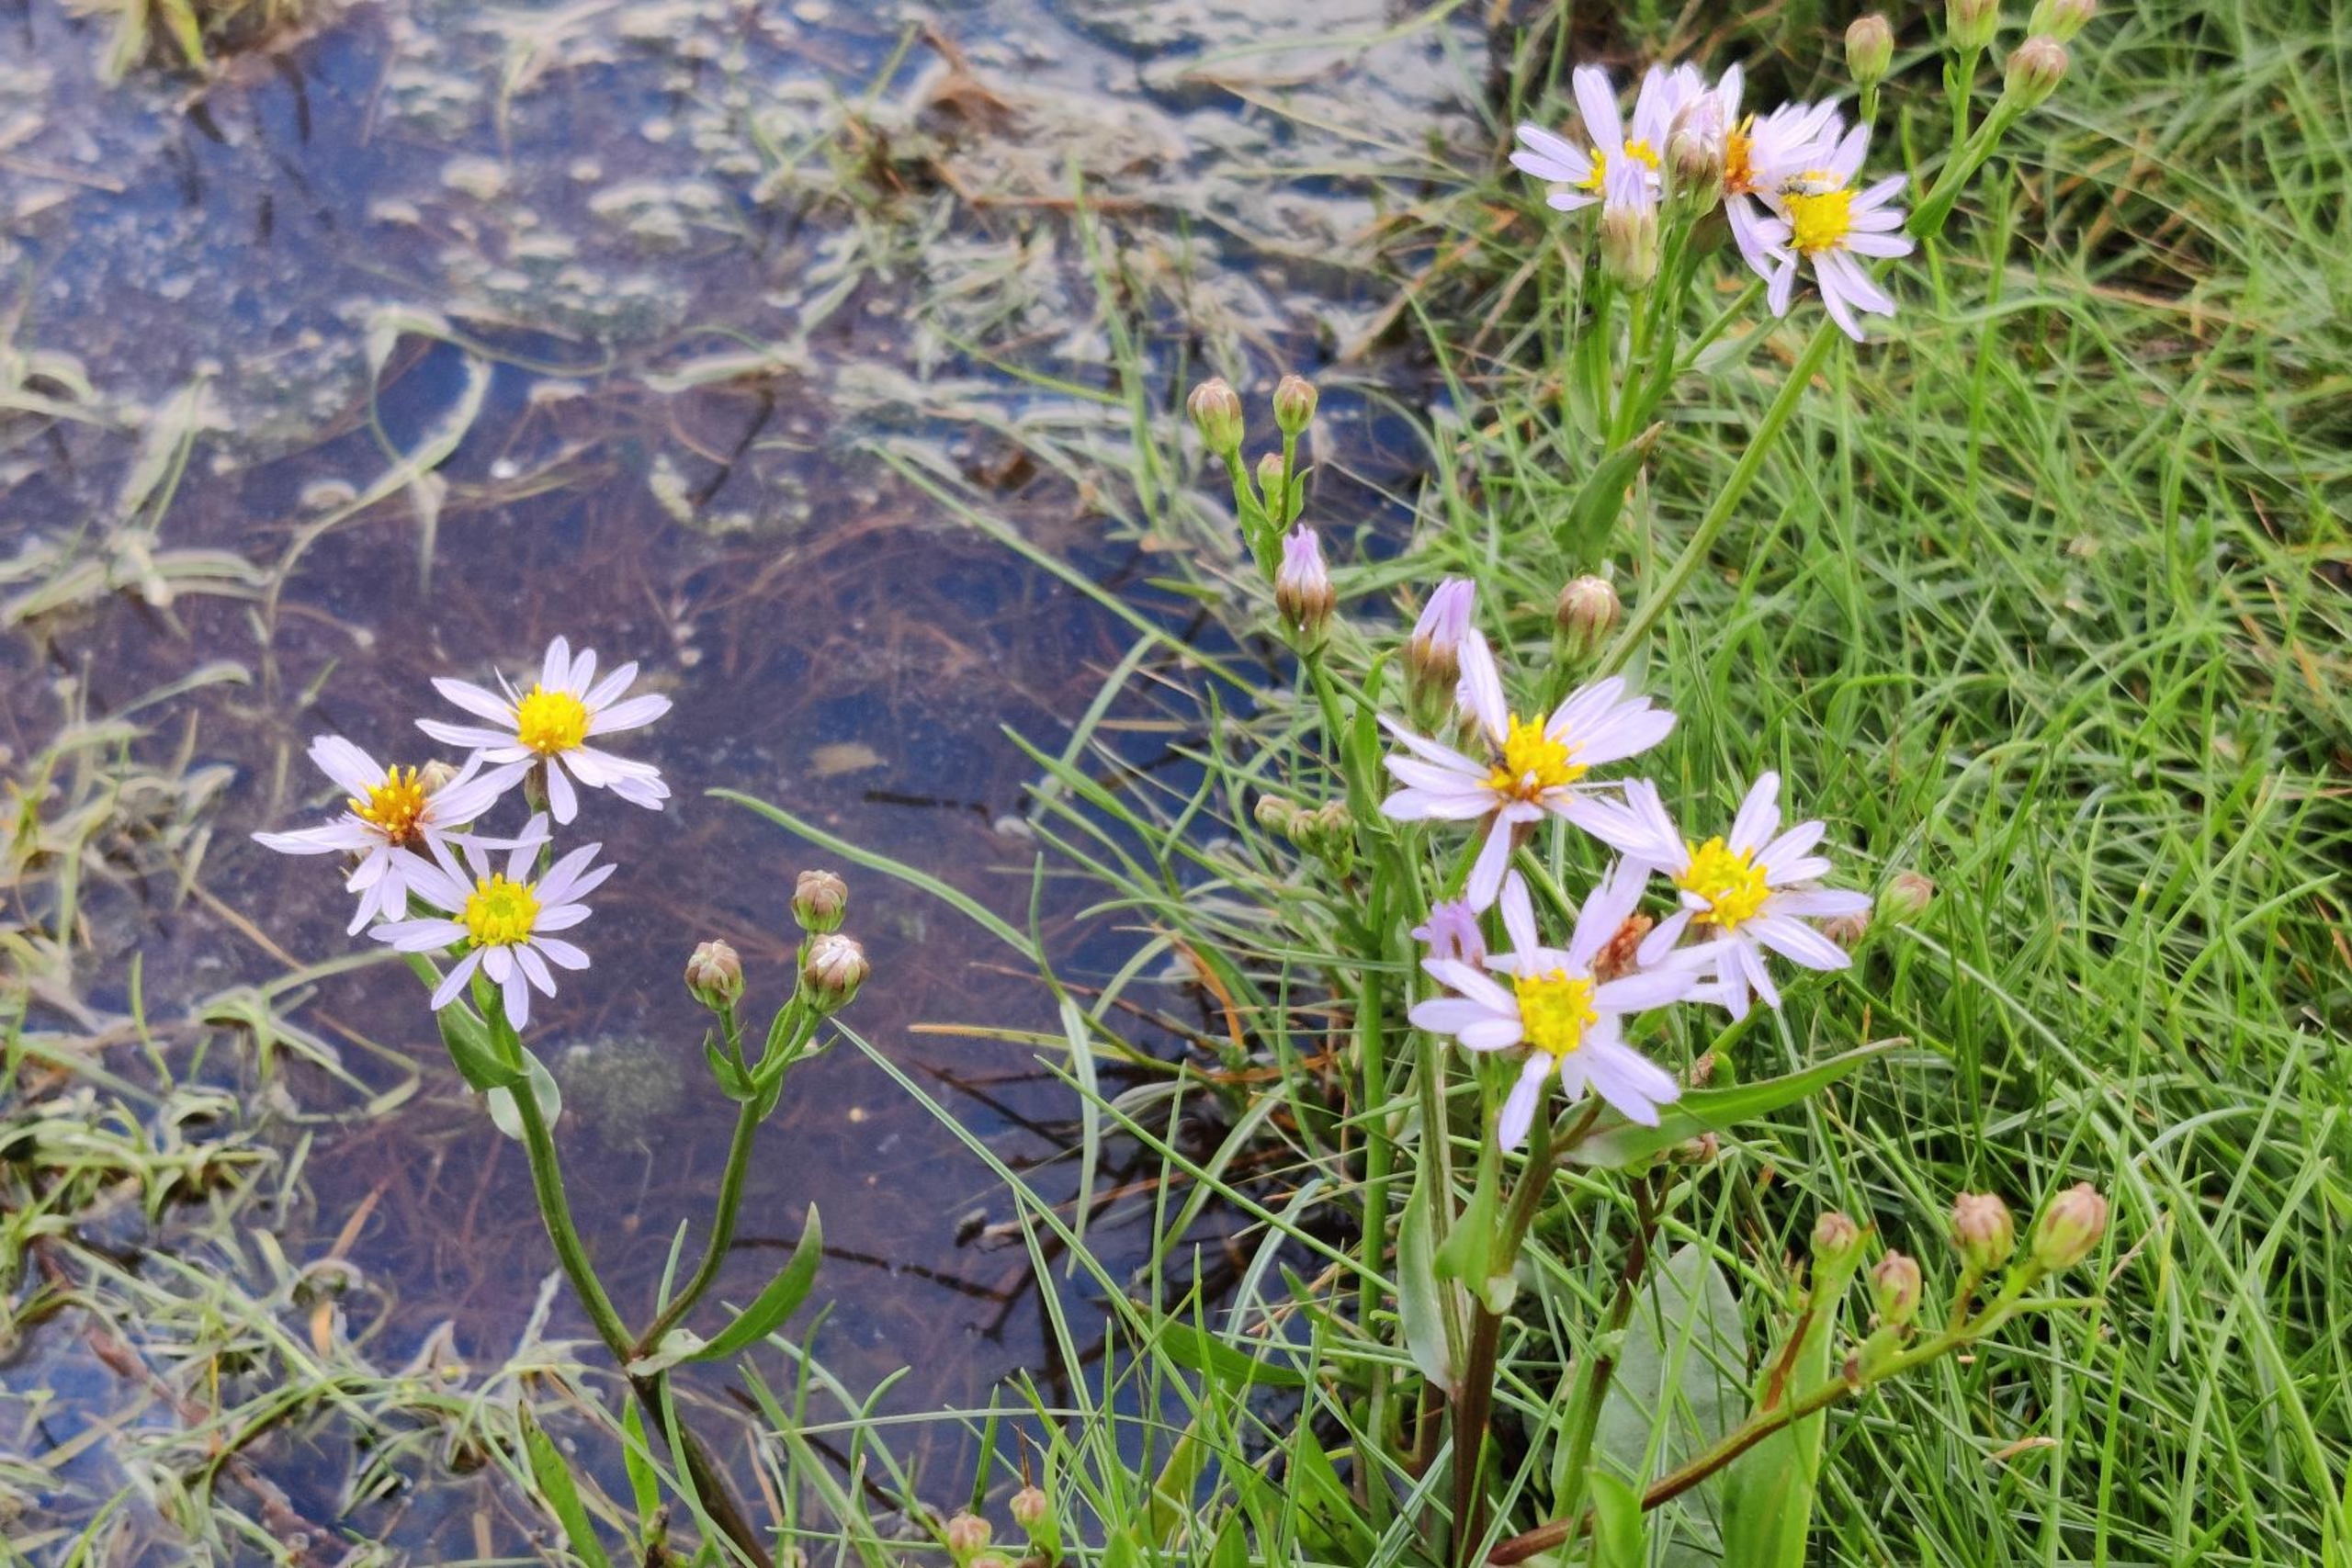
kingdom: Plantae
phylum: Tracheophyta
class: Magnoliopsida
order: Asterales
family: Asteraceae
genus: Tripolium
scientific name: Tripolium pannonicum
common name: Strandasters
